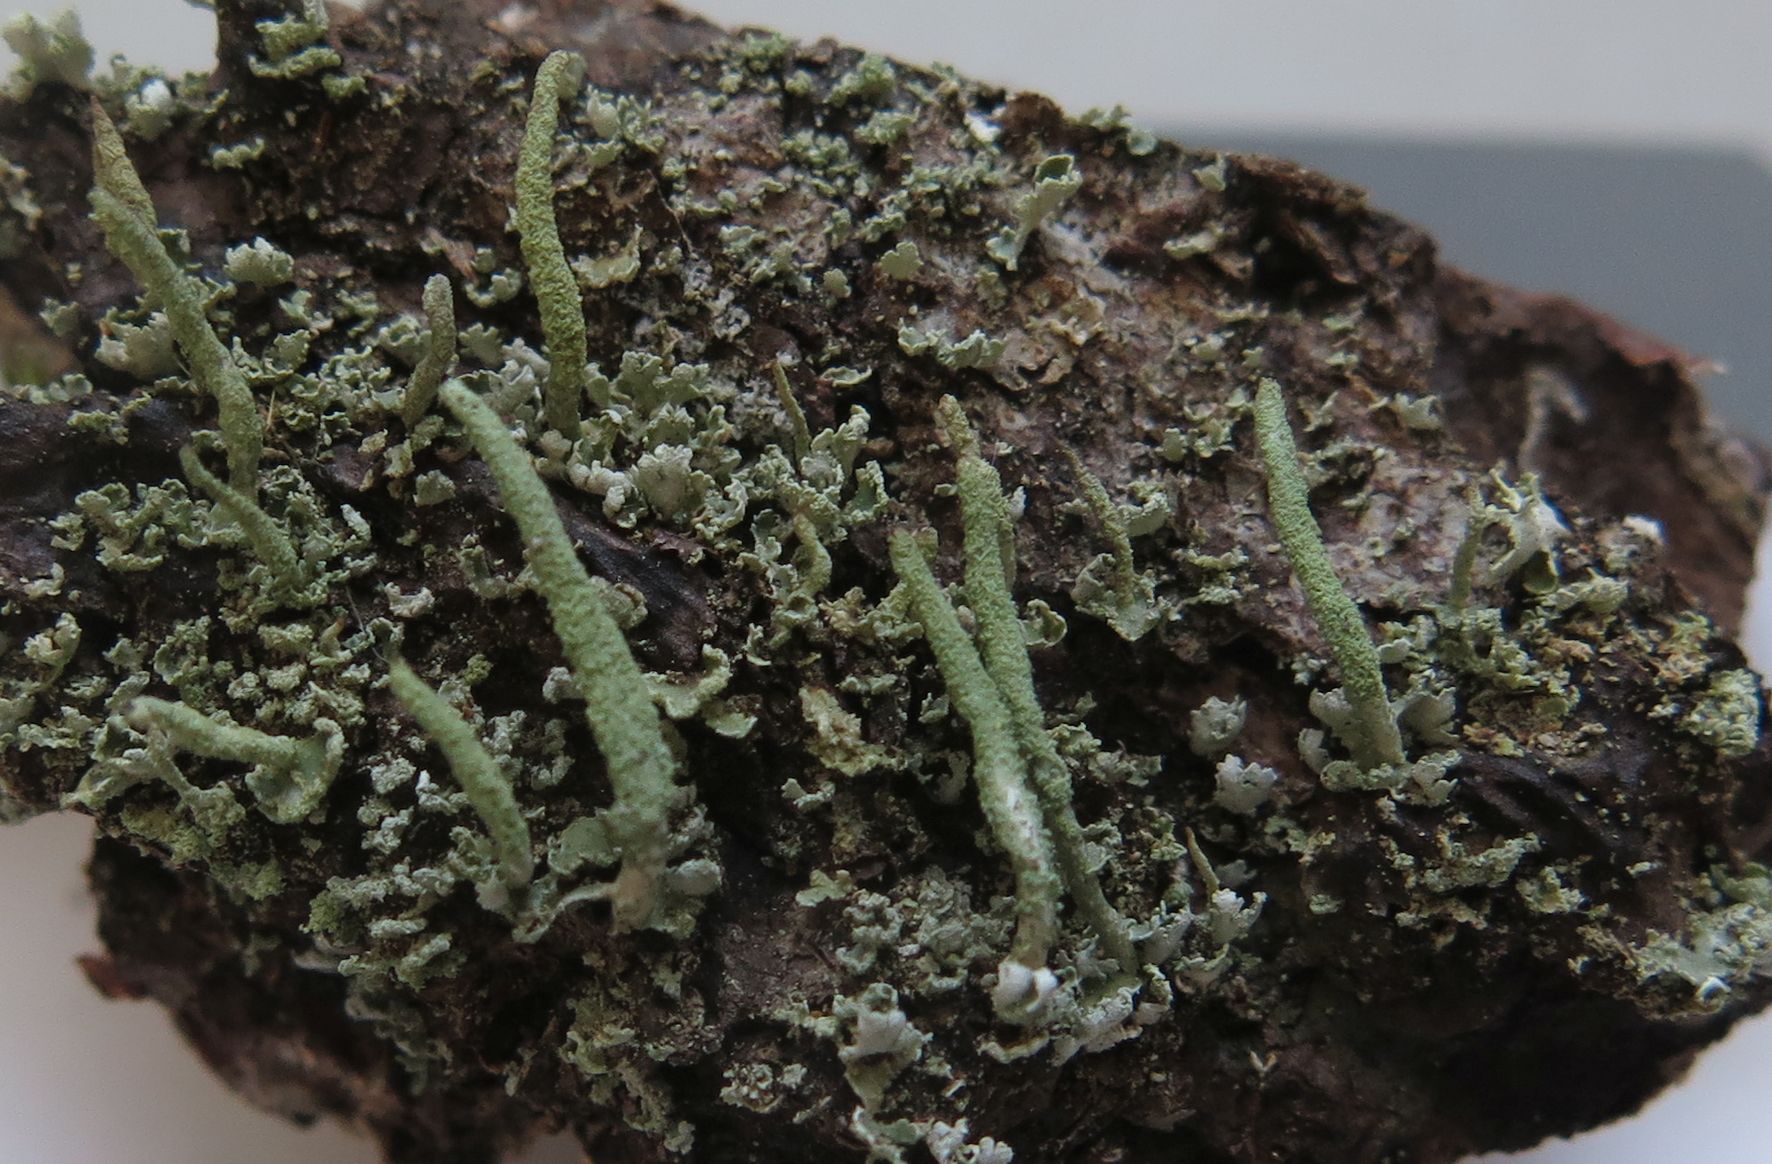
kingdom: Fungi
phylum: Ascomycota
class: Lecanoromycetes
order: Lecanorales
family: Cladoniaceae
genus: Cladonia
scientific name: Cladonia coniocraea
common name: træfods-bægerlav
